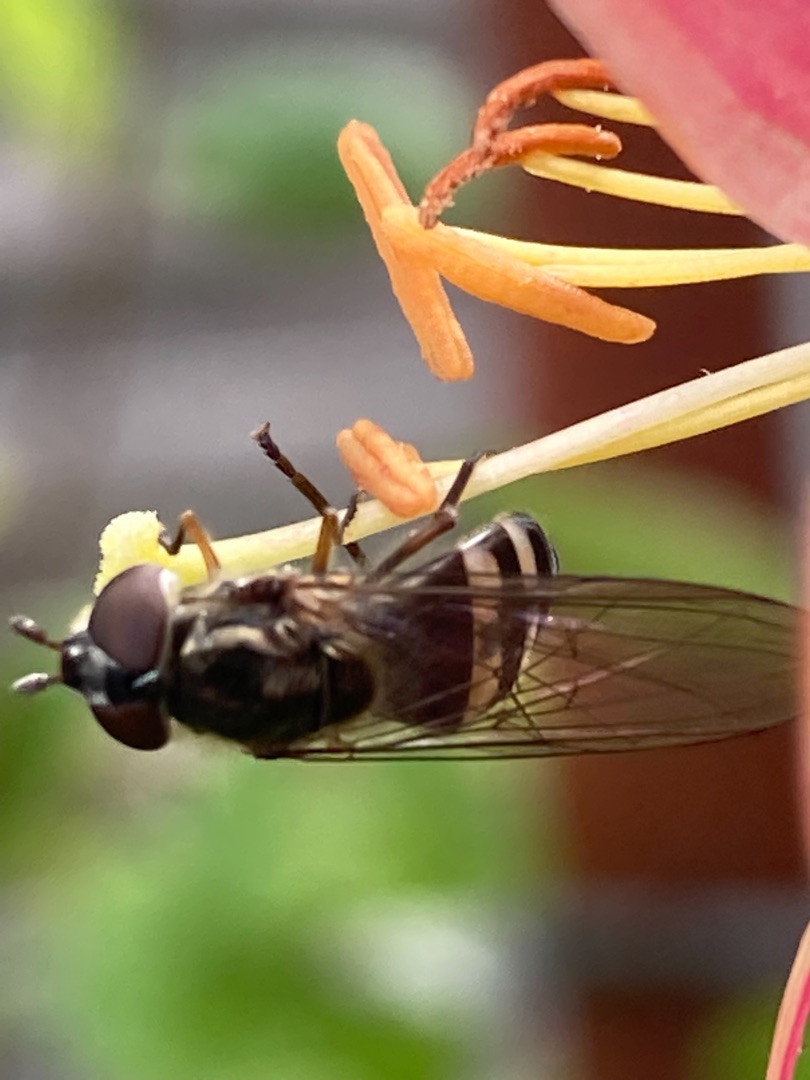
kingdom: Animalia
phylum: Arthropoda
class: Insecta
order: Diptera
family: Syrphidae
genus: Xanthandrus
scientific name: Xanthandrus comtus
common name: Gulhannet svirreflue
